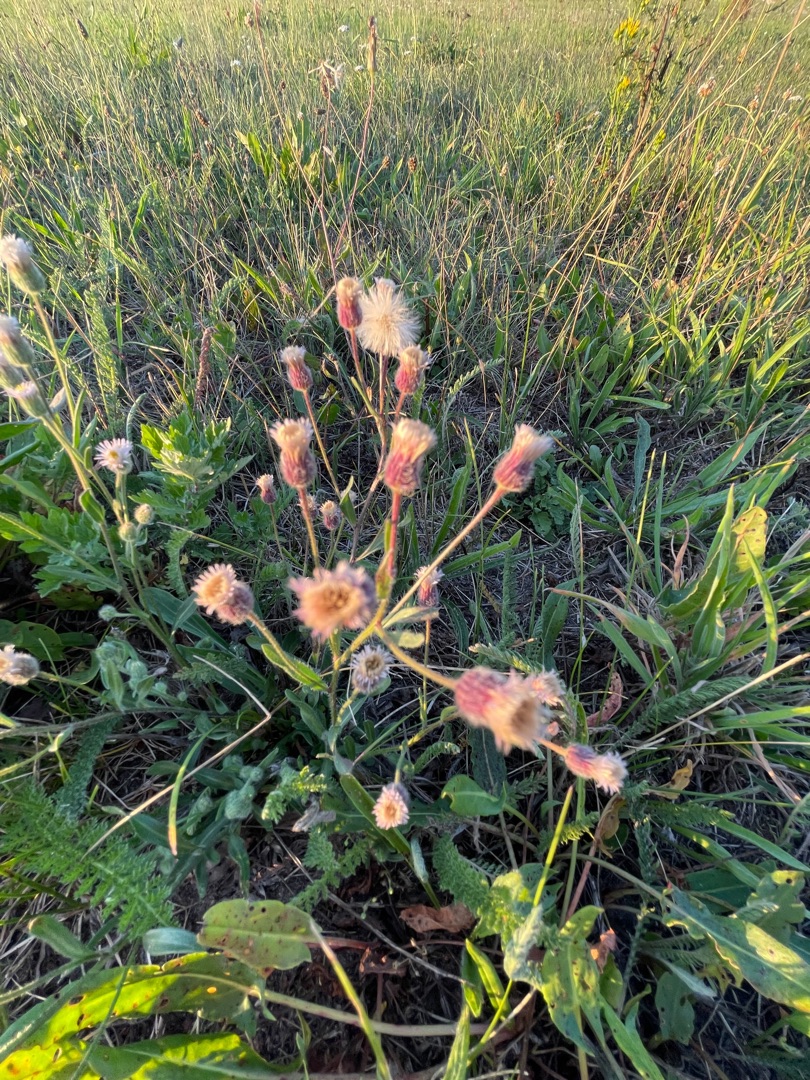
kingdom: Plantae
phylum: Tracheophyta
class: Magnoliopsida
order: Asterales
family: Asteraceae
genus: Erigeron
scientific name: Erigeron acris
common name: Bitter bakkestjerne
